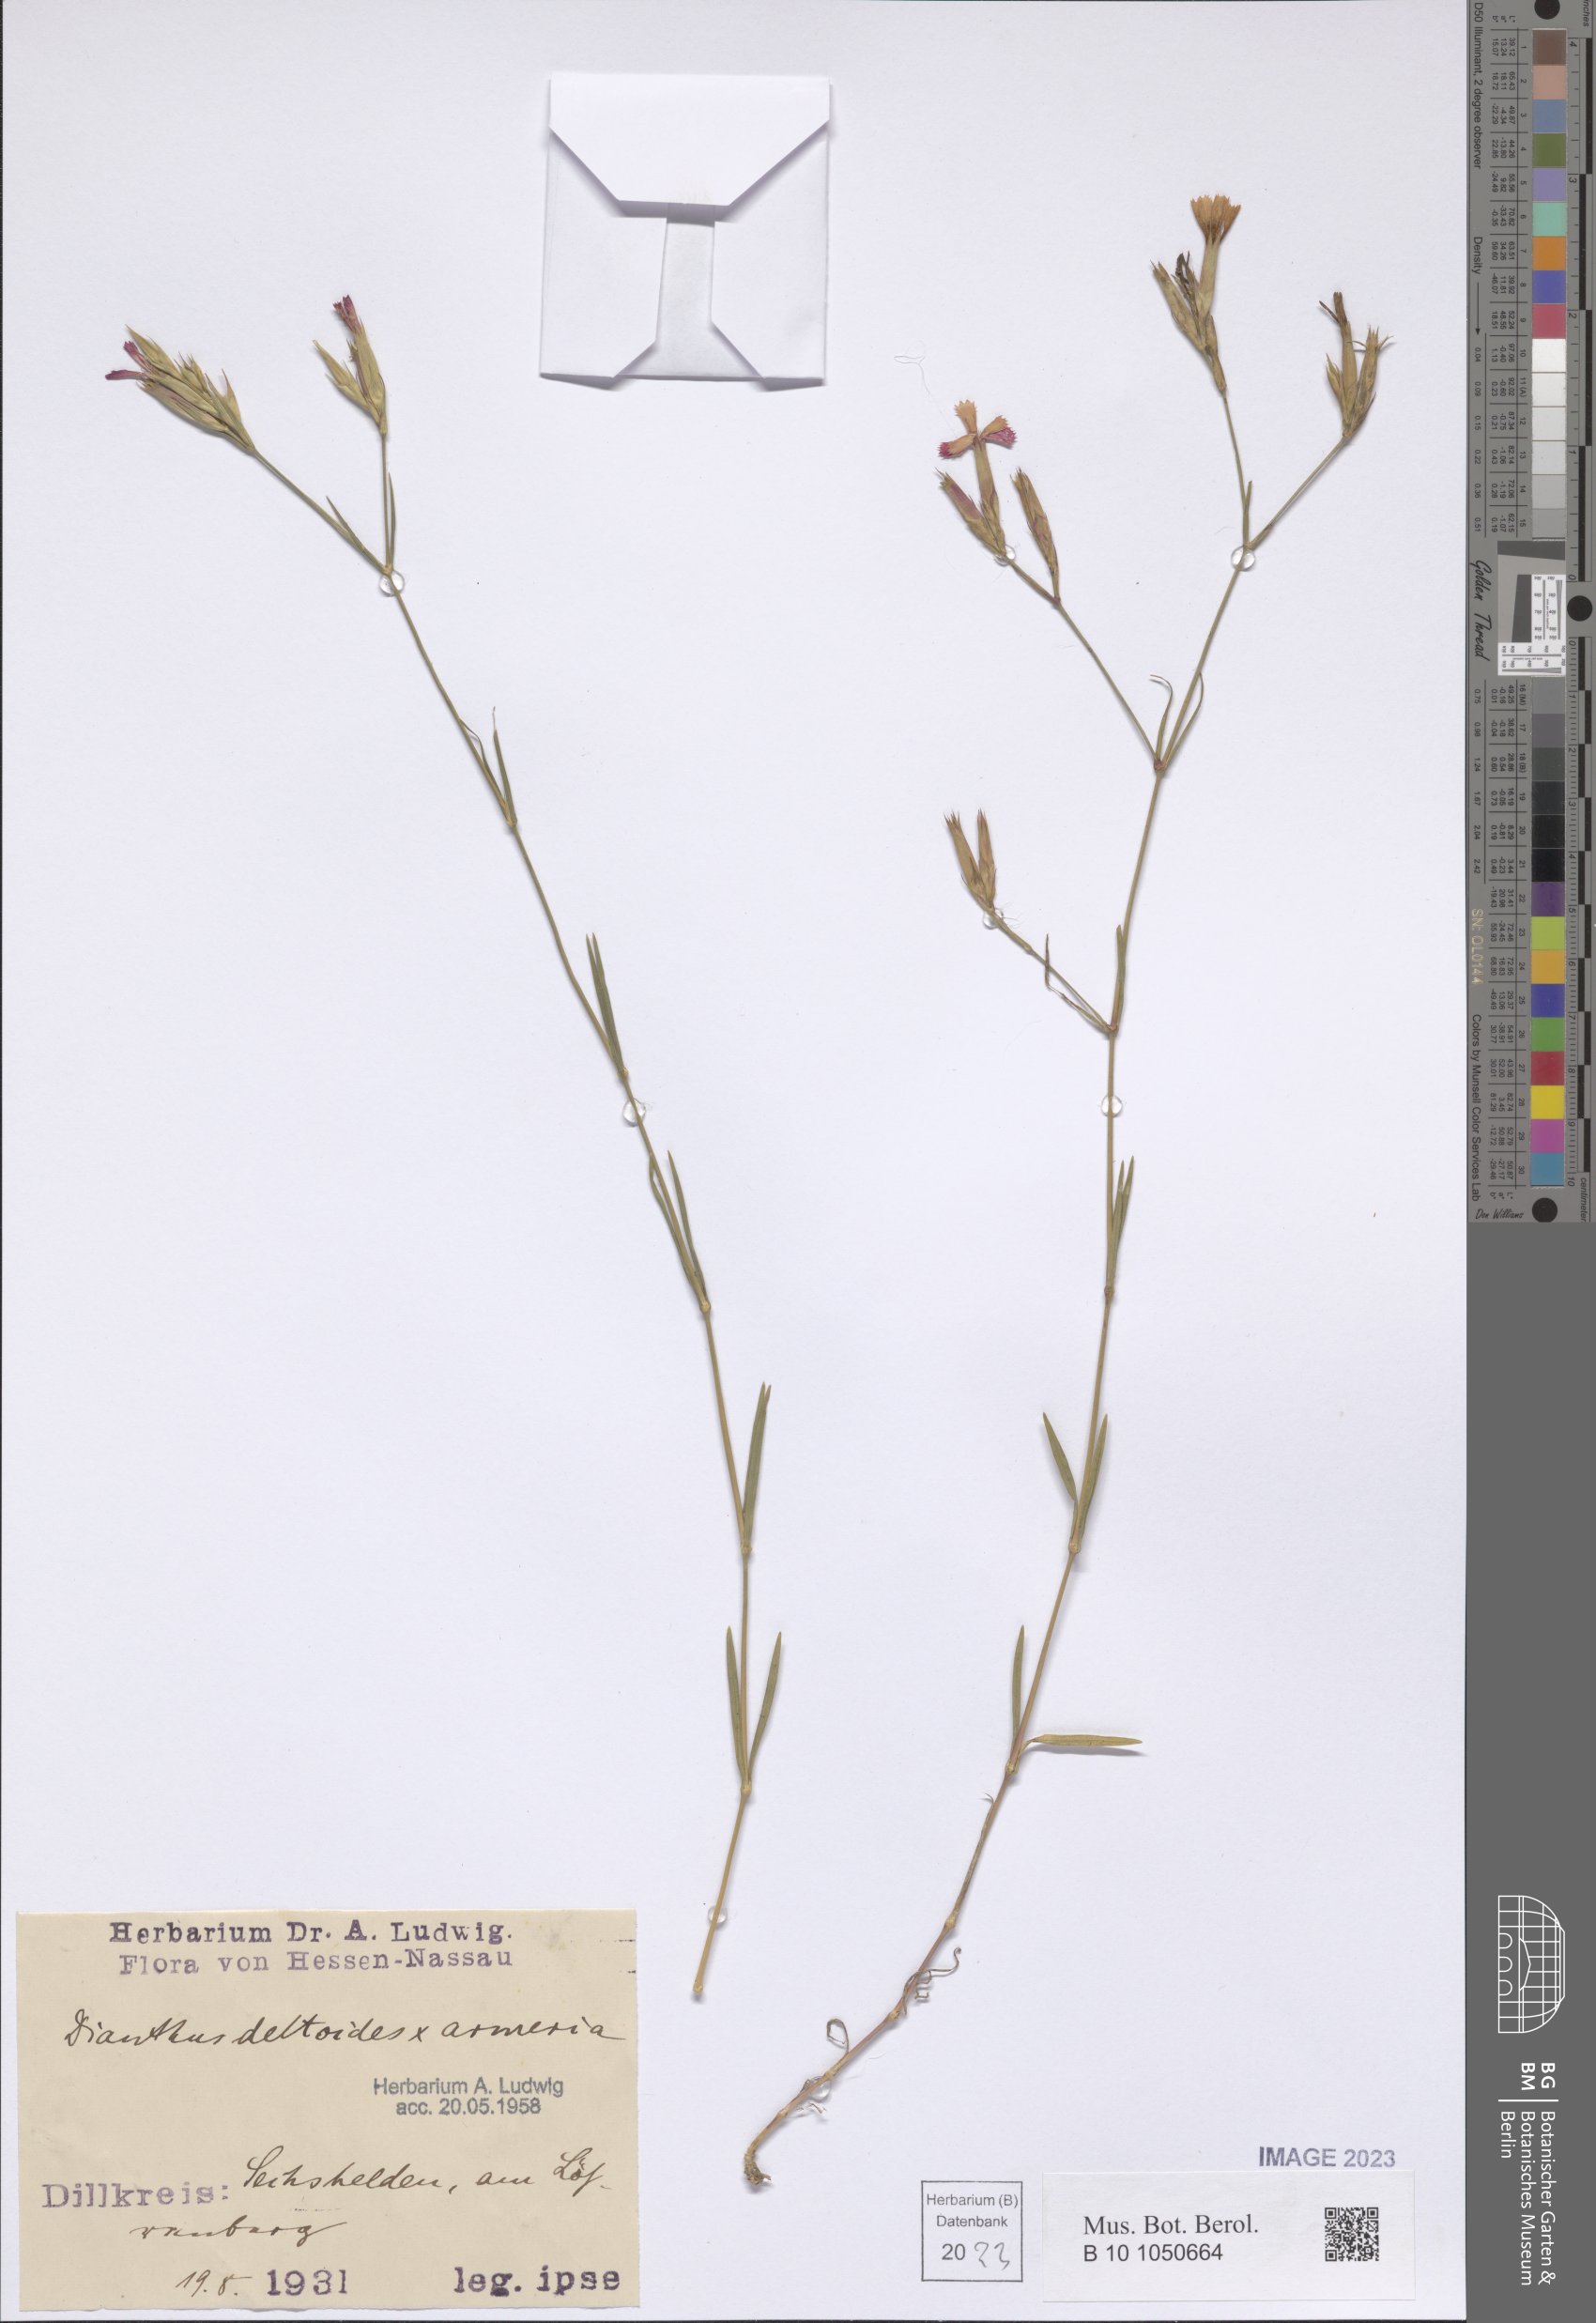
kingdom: Plantae
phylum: Tracheophyta
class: Magnoliopsida
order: Caryophyllales
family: Caryophyllaceae
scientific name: Caryophyllaceae
